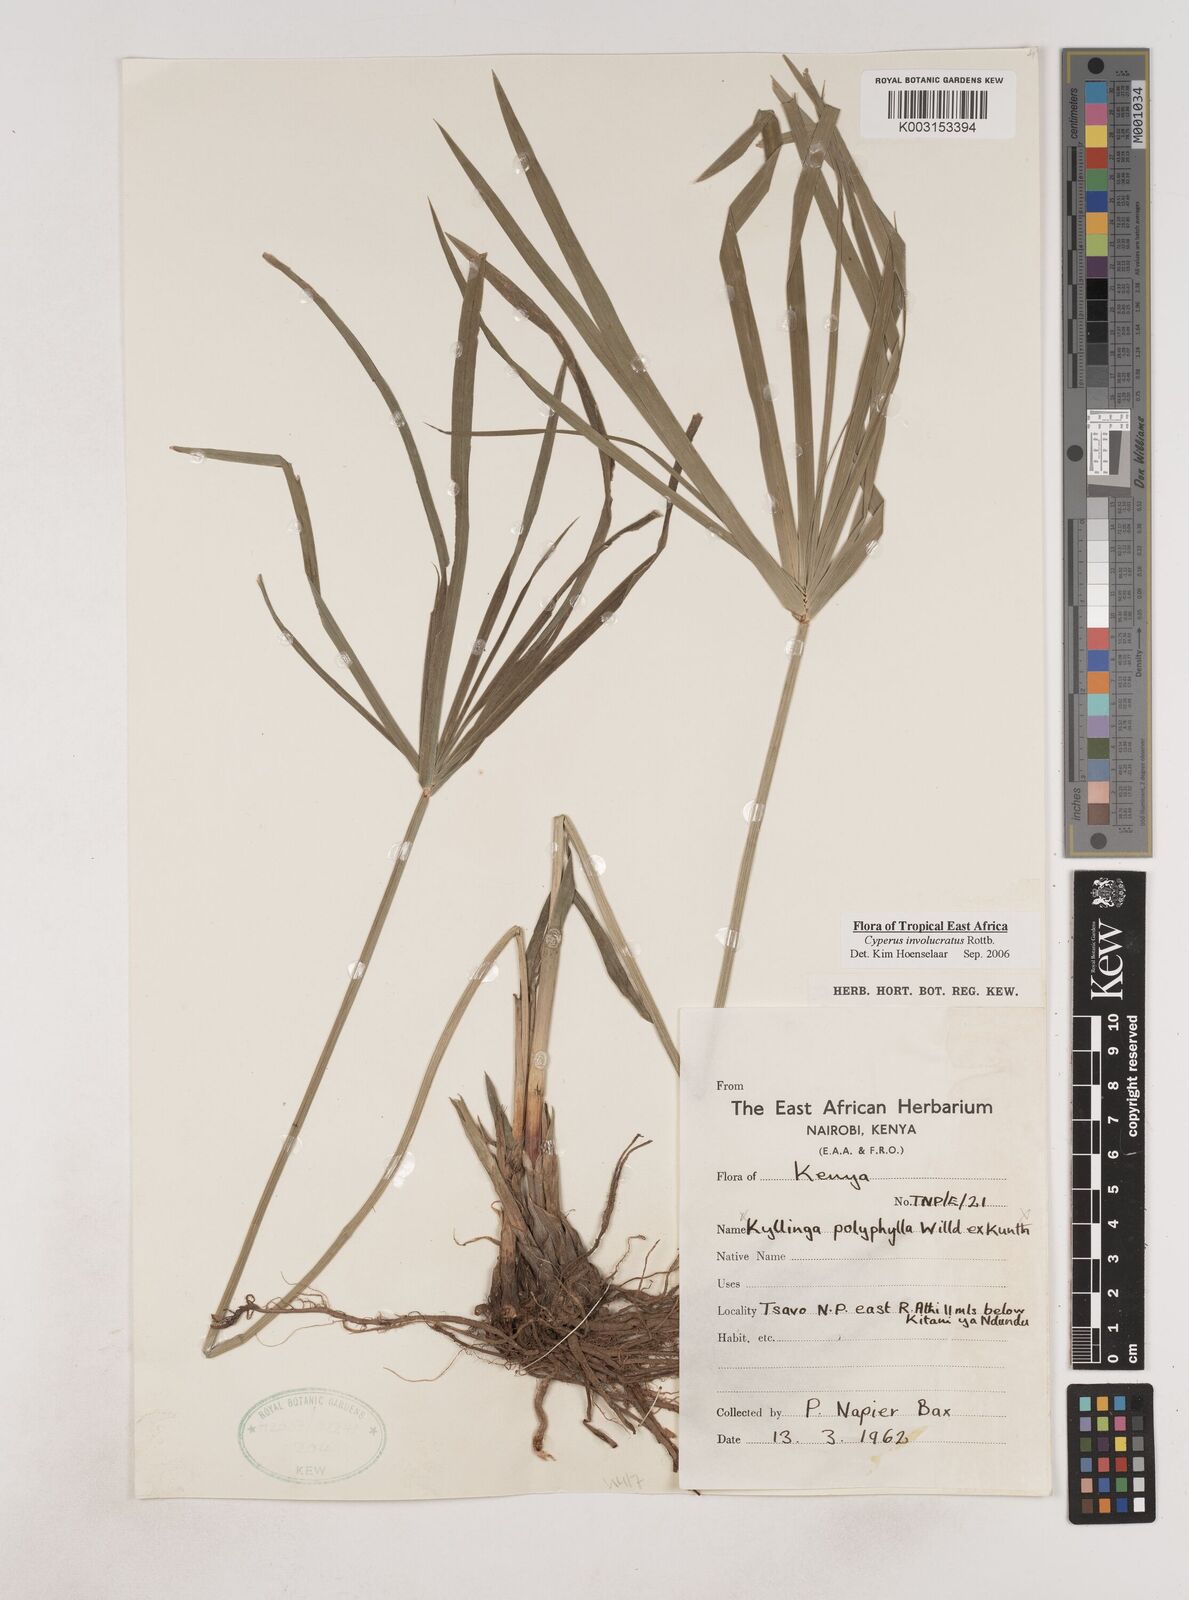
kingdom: Plantae
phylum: Tracheophyta
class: Liliopsida
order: Poales
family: Cyperaceae
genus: Cyperus
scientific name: Cyperus alternifolius
